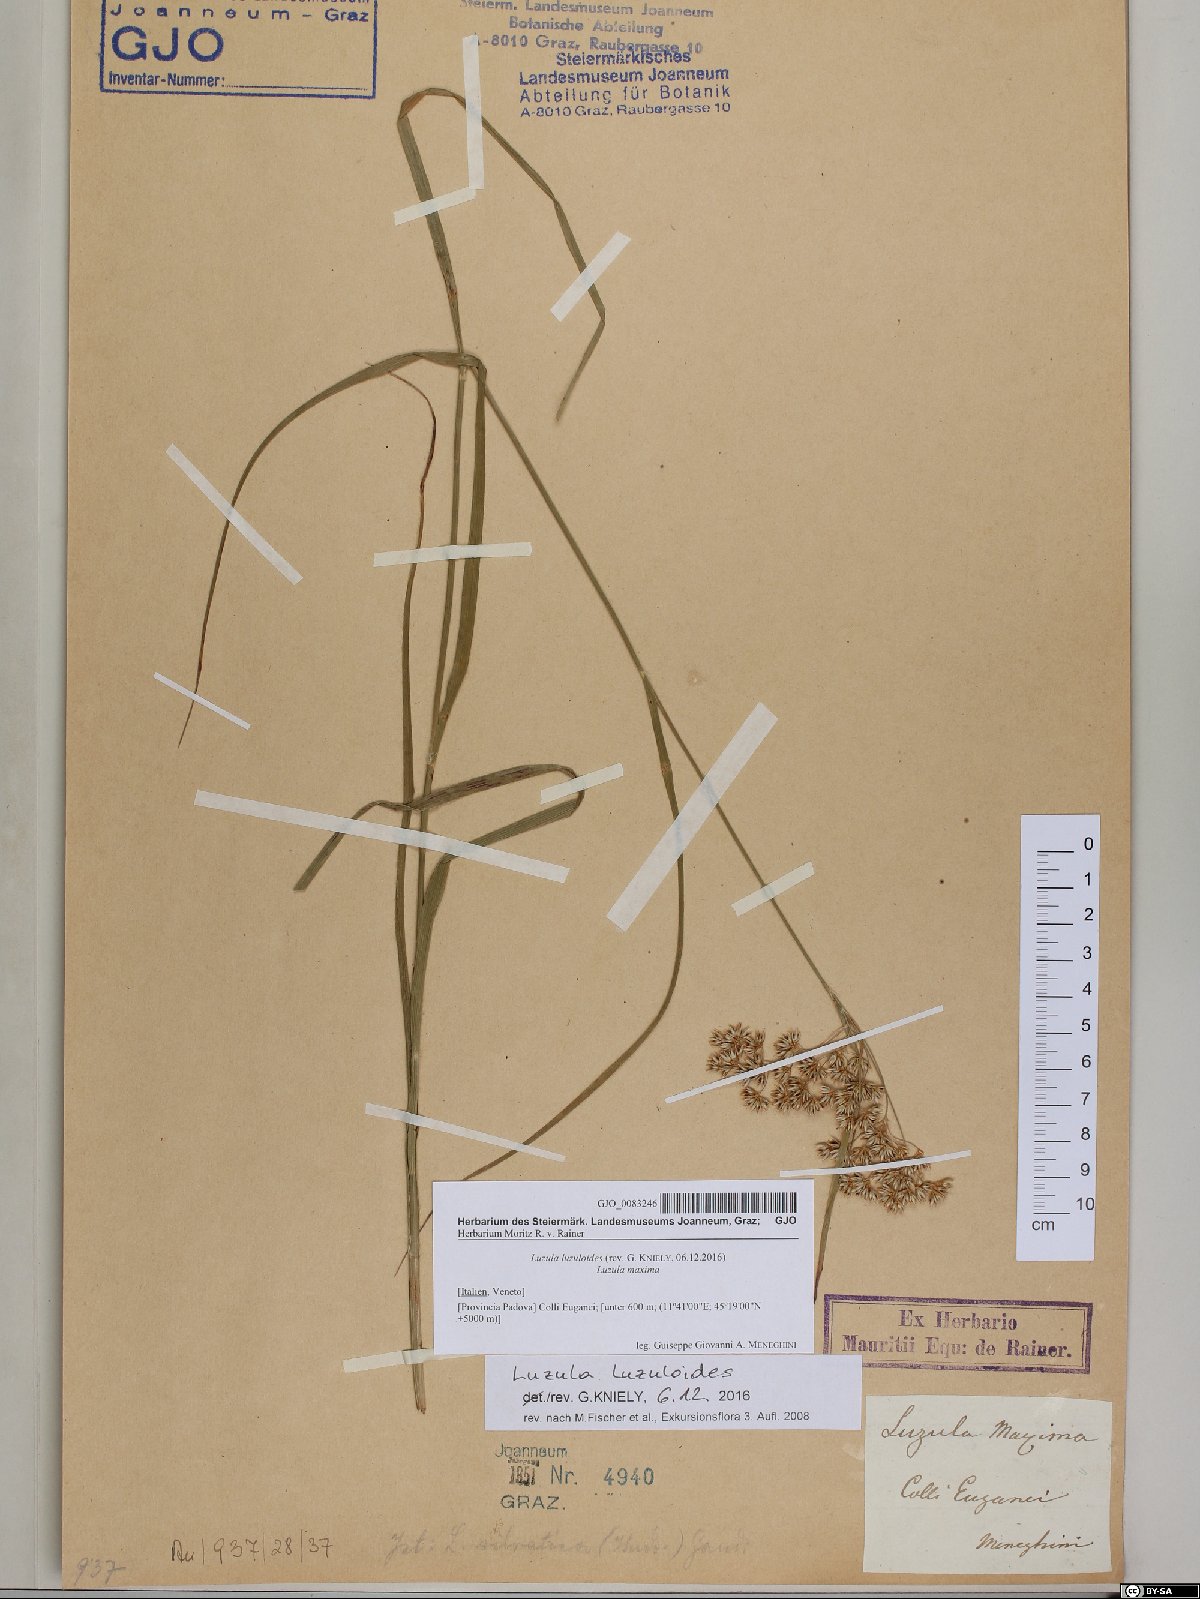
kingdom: Plantae
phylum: Tracheophyta
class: Liliopsida
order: Poales
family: Juncaceae
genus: Luzula
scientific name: Luzula luzuloides
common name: White wood-rush
